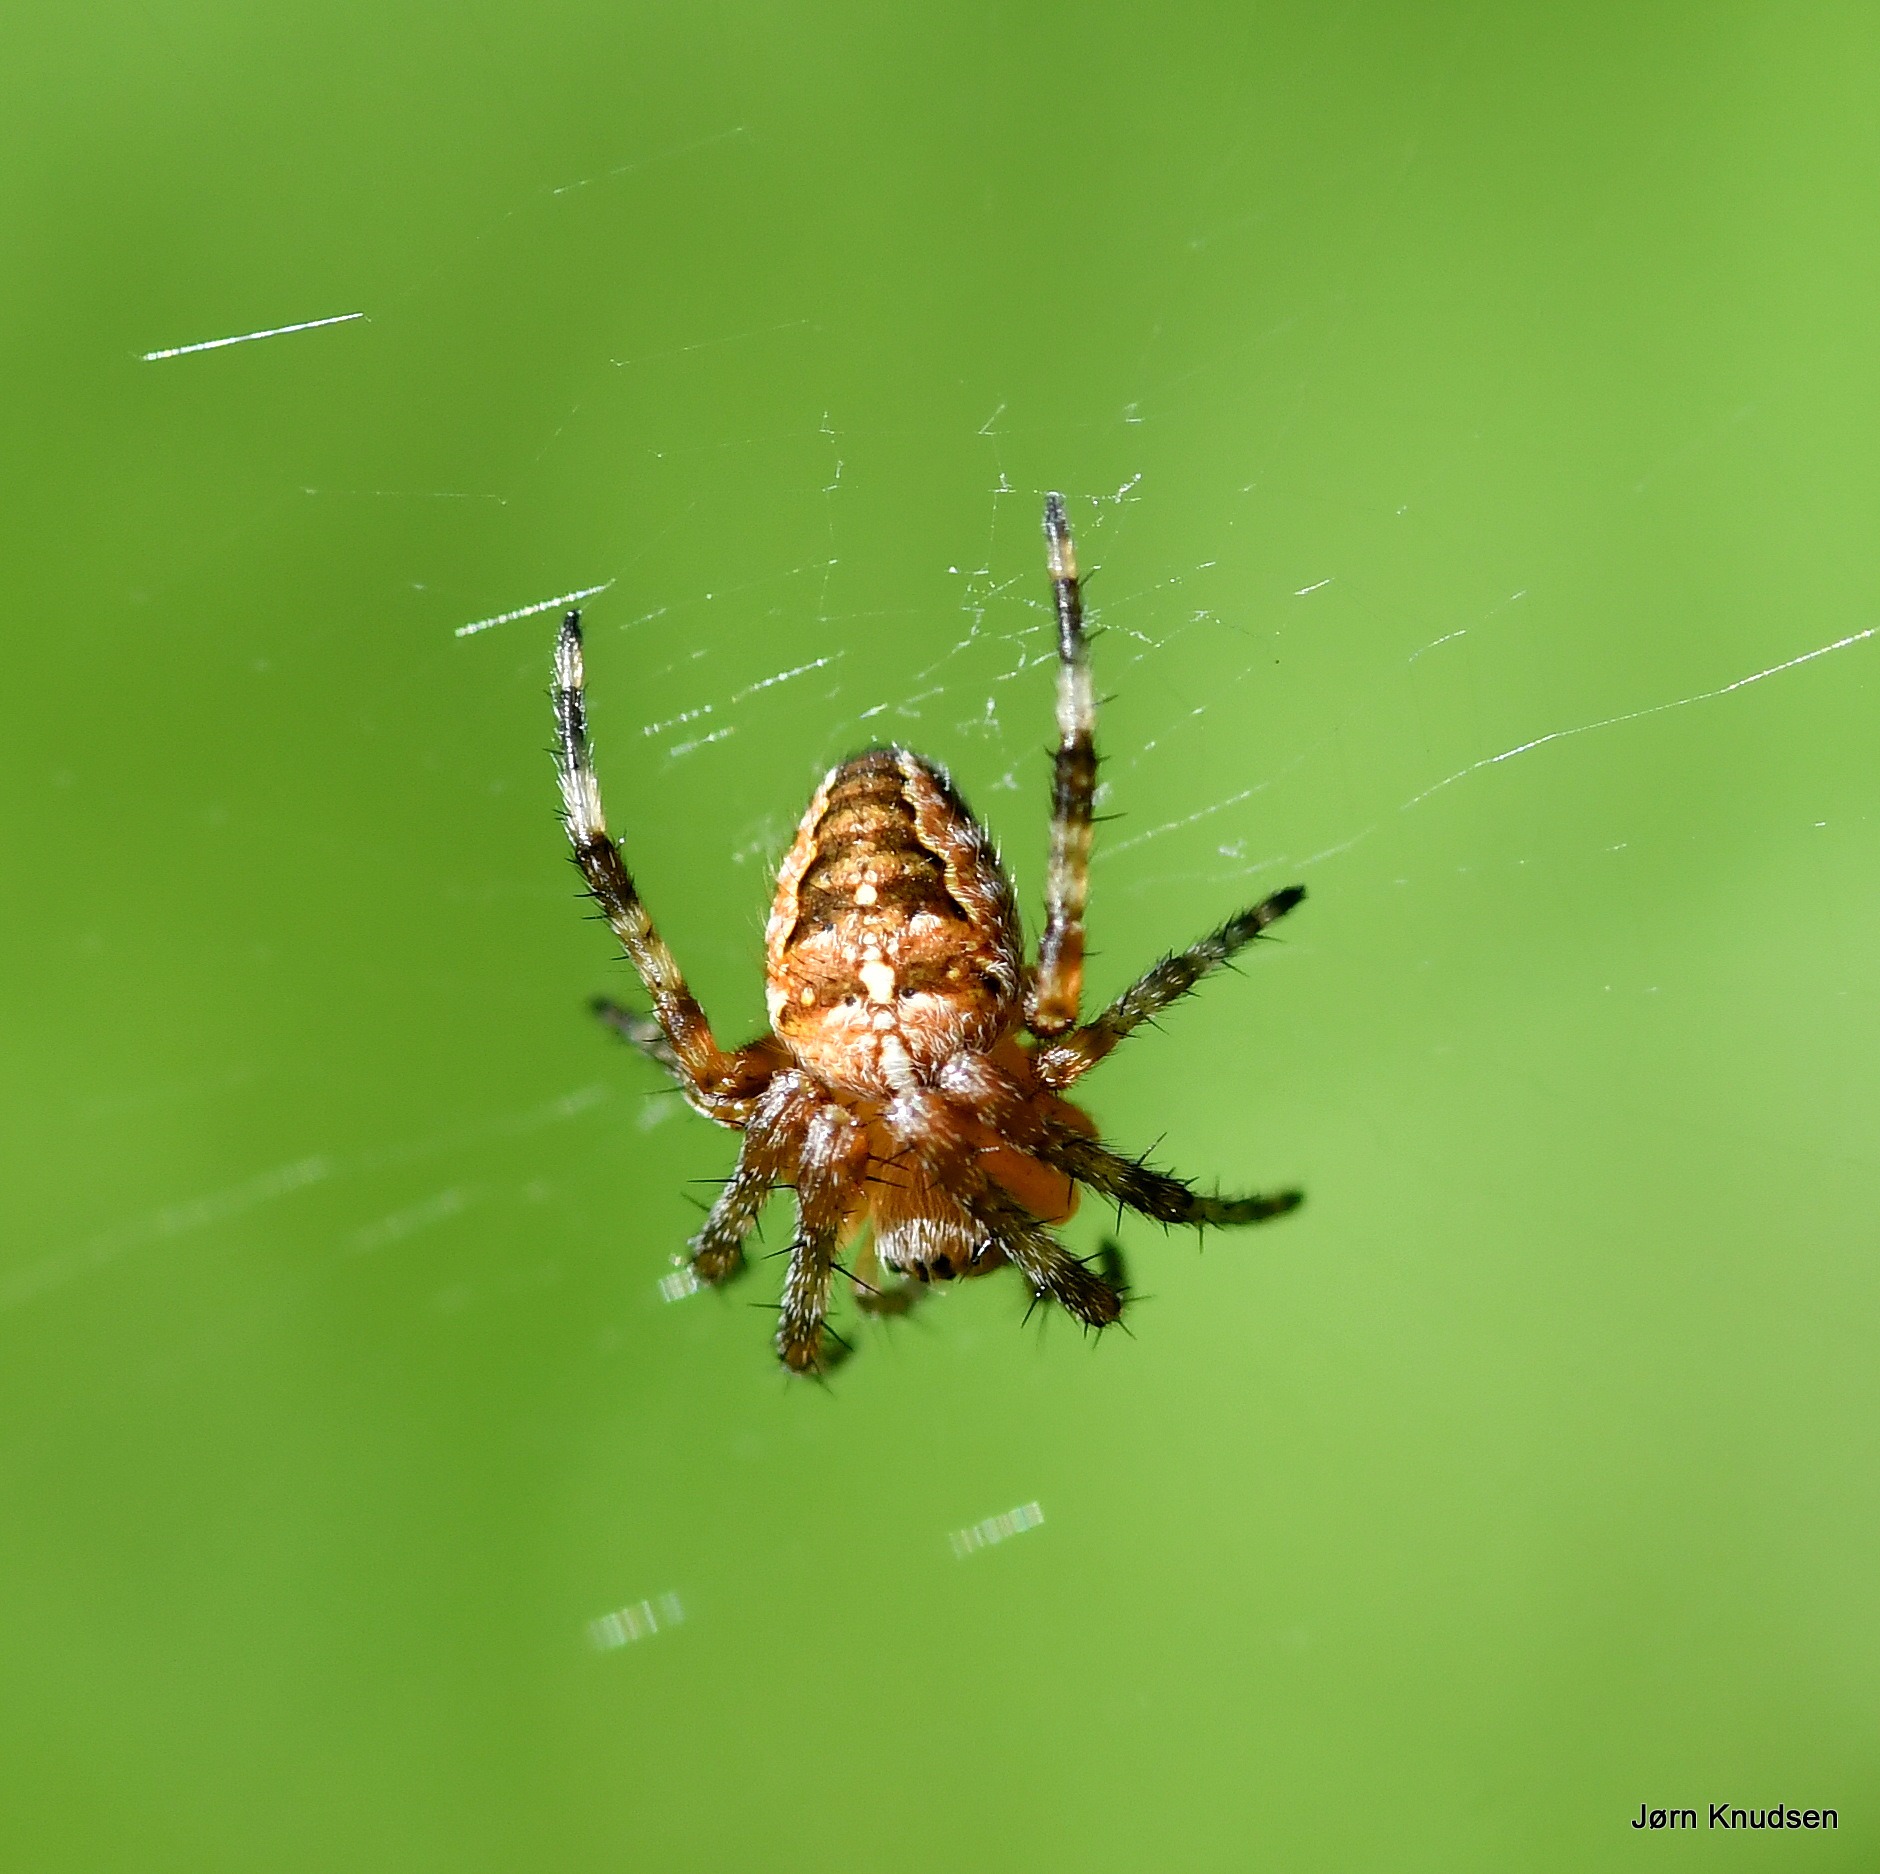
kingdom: Animalia
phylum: Arthropoda
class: Arachnida
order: Araneae
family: Araneidae
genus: Araneus
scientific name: Araneus diadematus
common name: Korsedderkop
